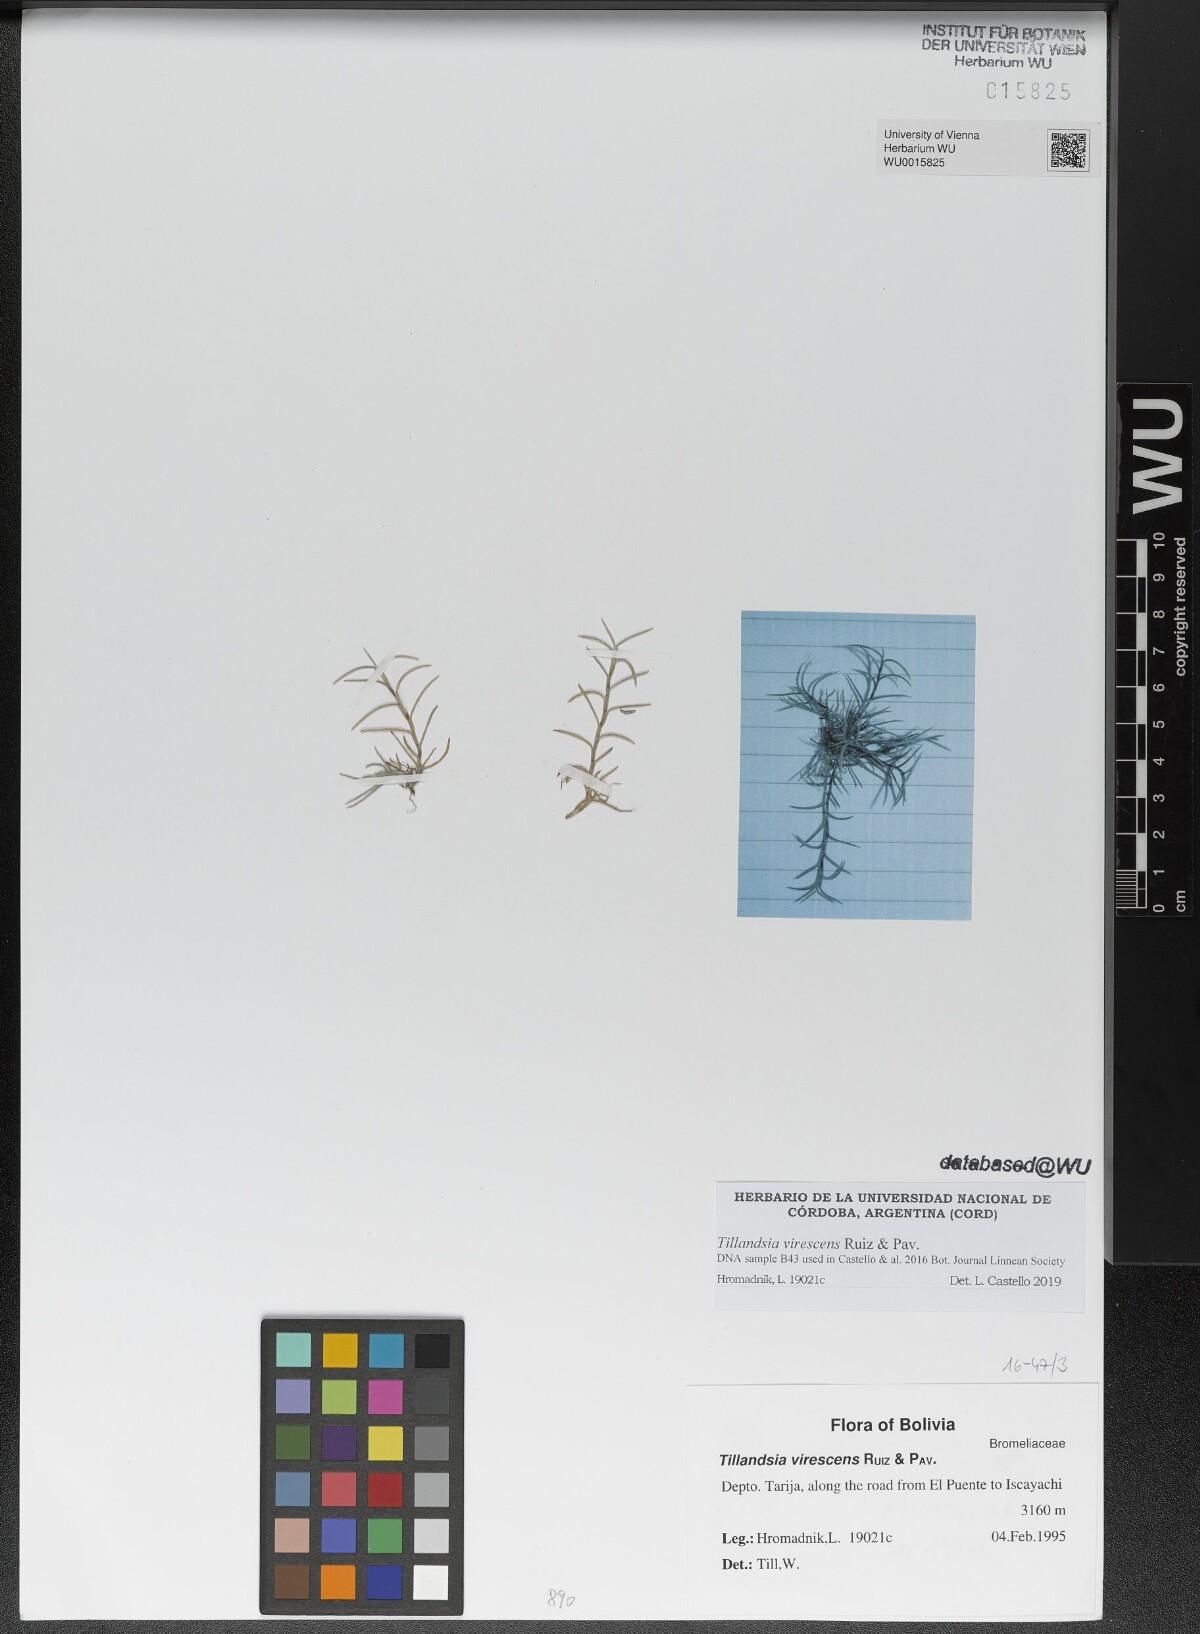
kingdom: Plantae
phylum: Tracheophyta
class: Liliopsida
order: Poales
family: Bromeliaceae
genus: Tillandsia
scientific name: Tillandsia virescens
